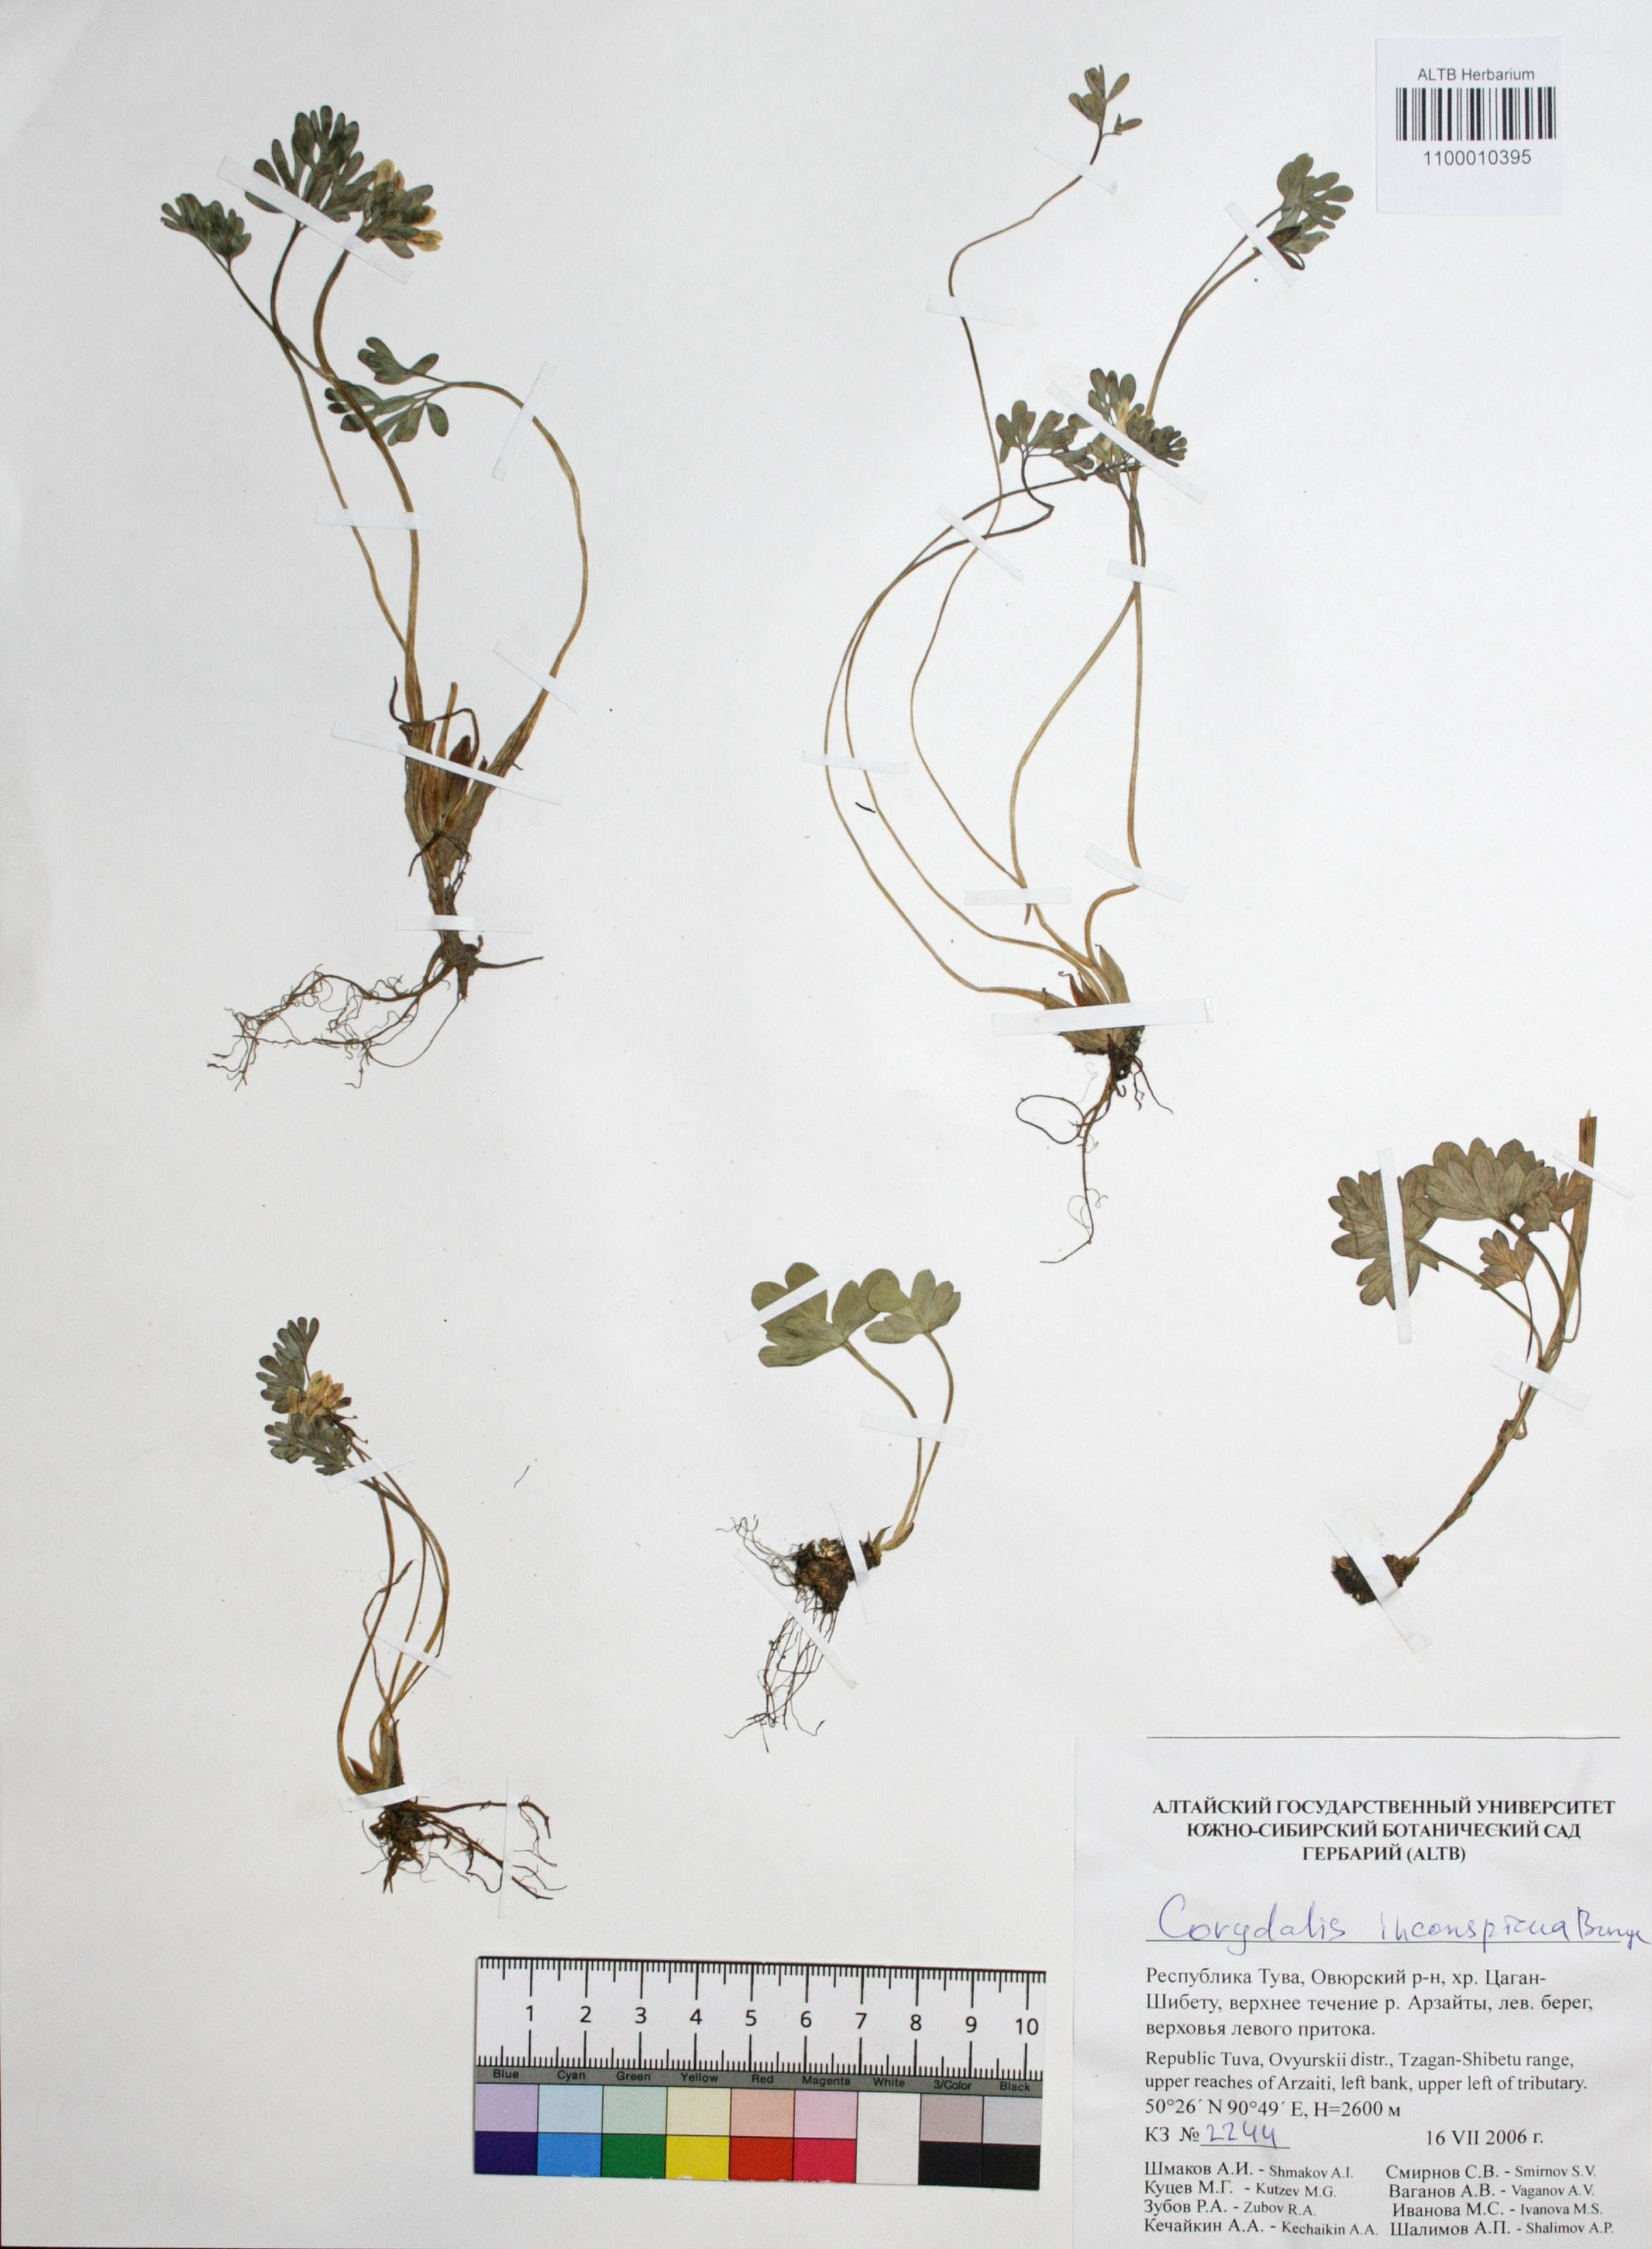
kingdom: Plantae
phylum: Tracheophyta
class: Magnoliopsida
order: Ranunculales
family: Papaveraceae
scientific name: Papaveraceae
